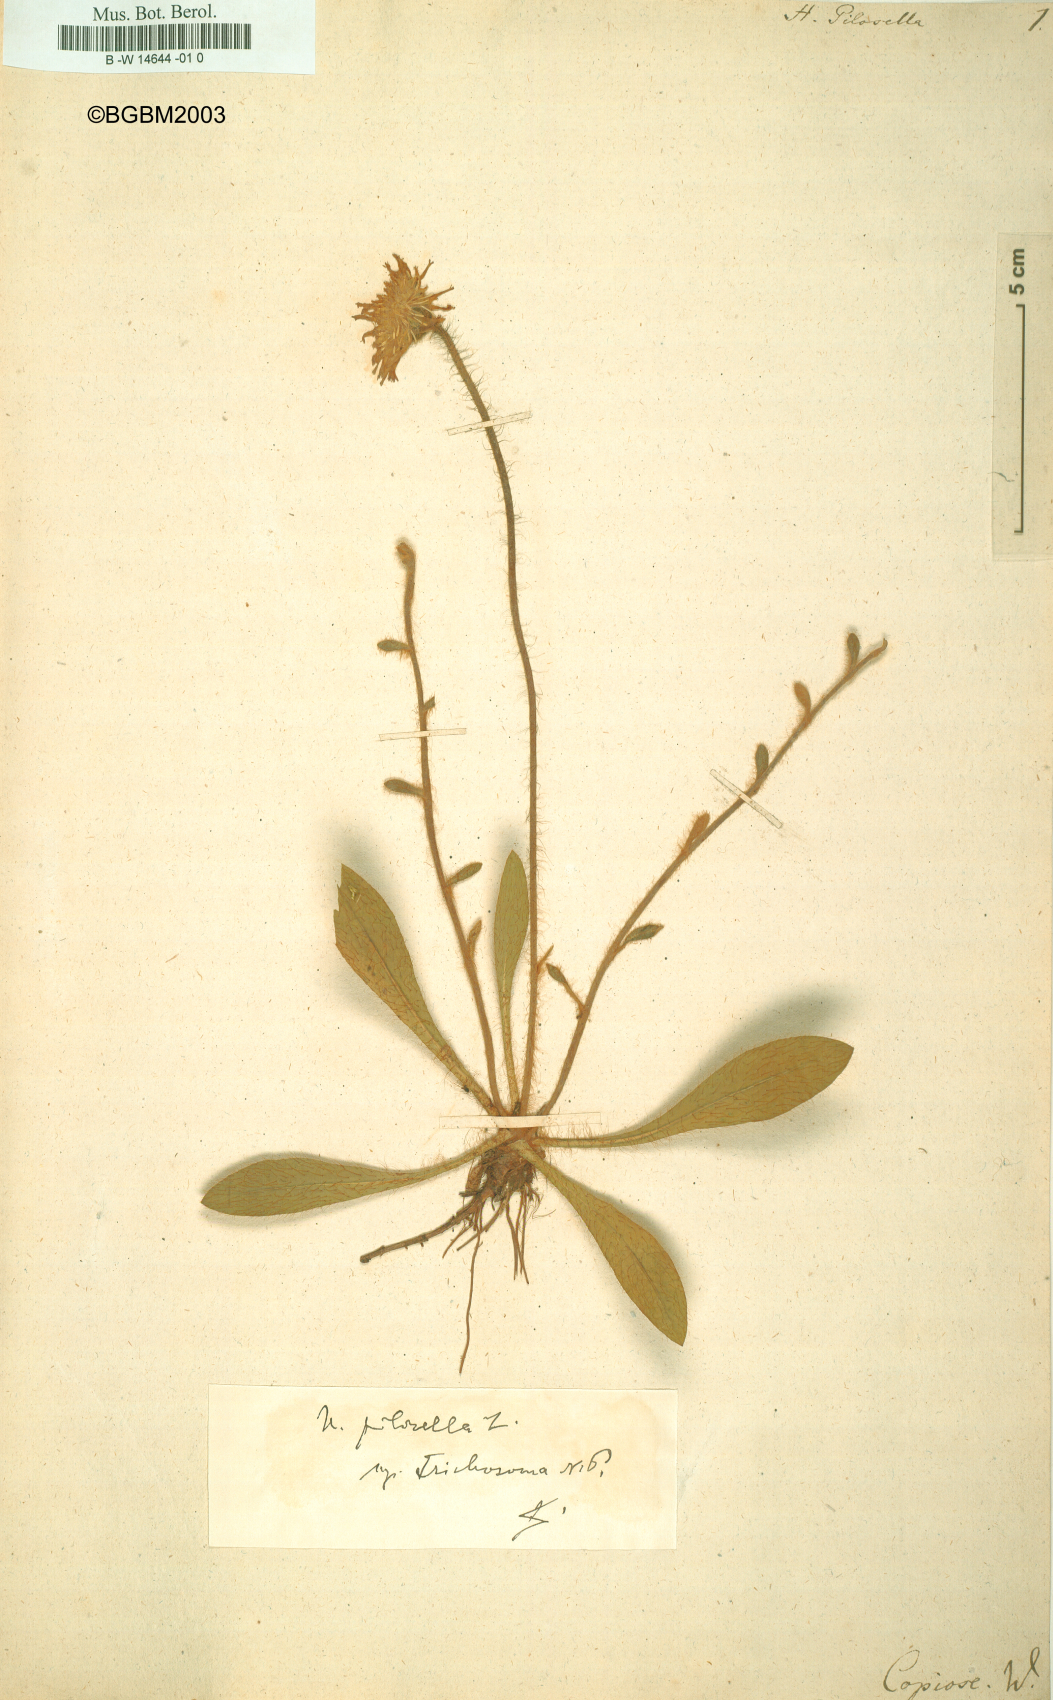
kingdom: Plantae
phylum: Tracheophyta
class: Magnoliopsida
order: Asterales
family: Asteraceae
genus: Pilosella
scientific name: Pilosella officinarum
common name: Mouse-ear hawkweed
